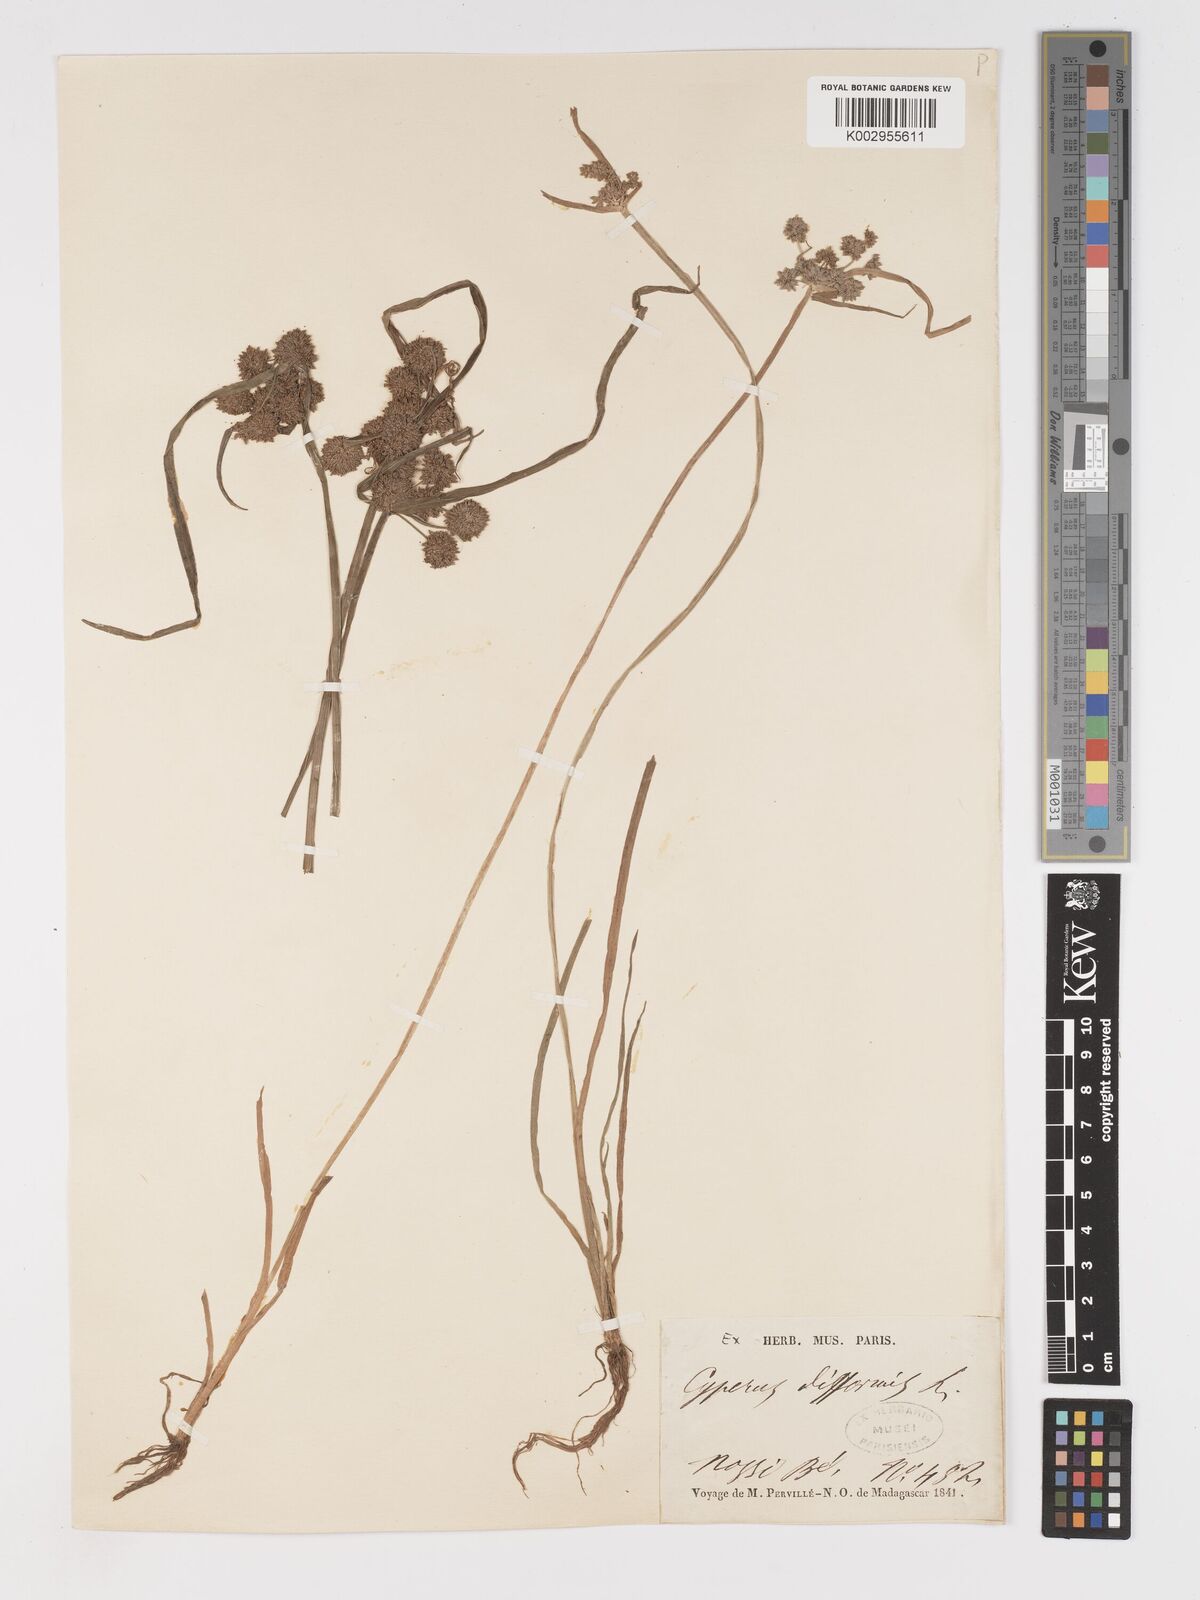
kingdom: Plantae
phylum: Tracheophyta
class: Liliopsida
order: Poales
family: Cyperaceae
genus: Cyperus
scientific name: Cyperus difformis
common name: Variable flatsedge
